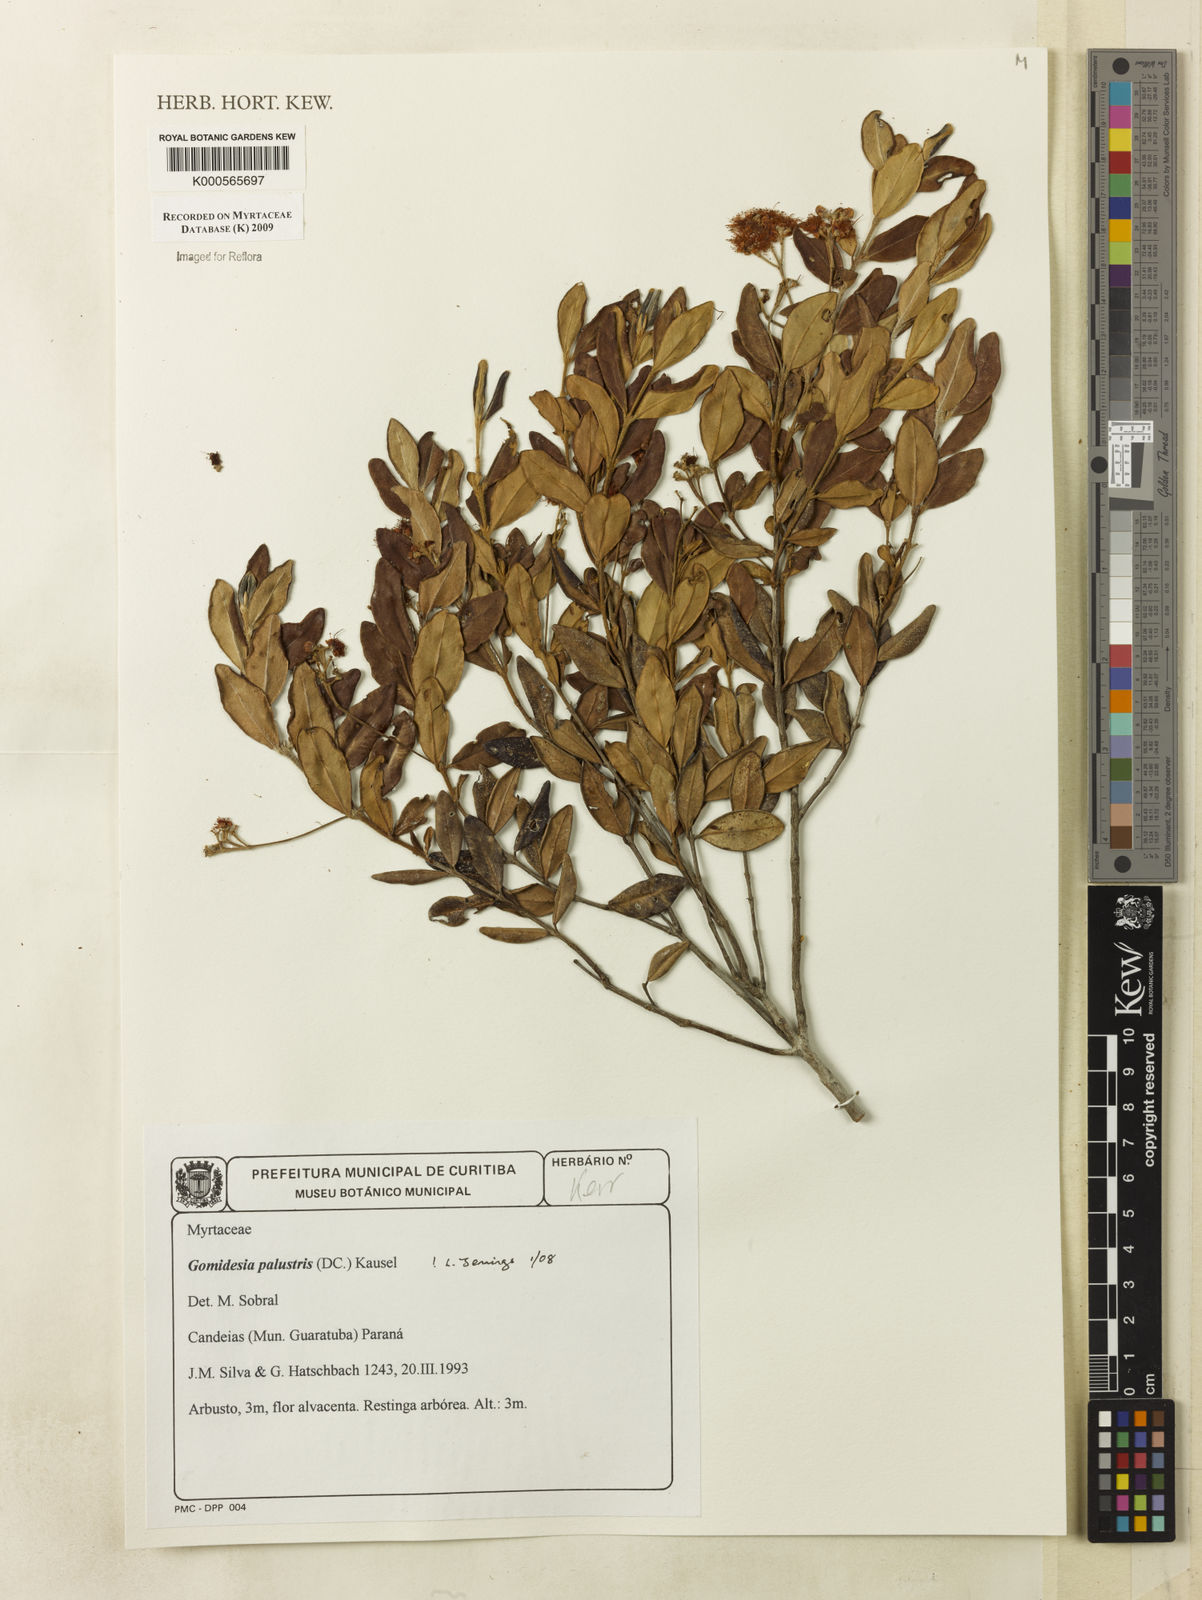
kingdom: Plantae
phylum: Tracheophyta
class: Magnoliopsida
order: Myrtales
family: Myrtaceae
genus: Myrcia
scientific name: Myrcia palustris
